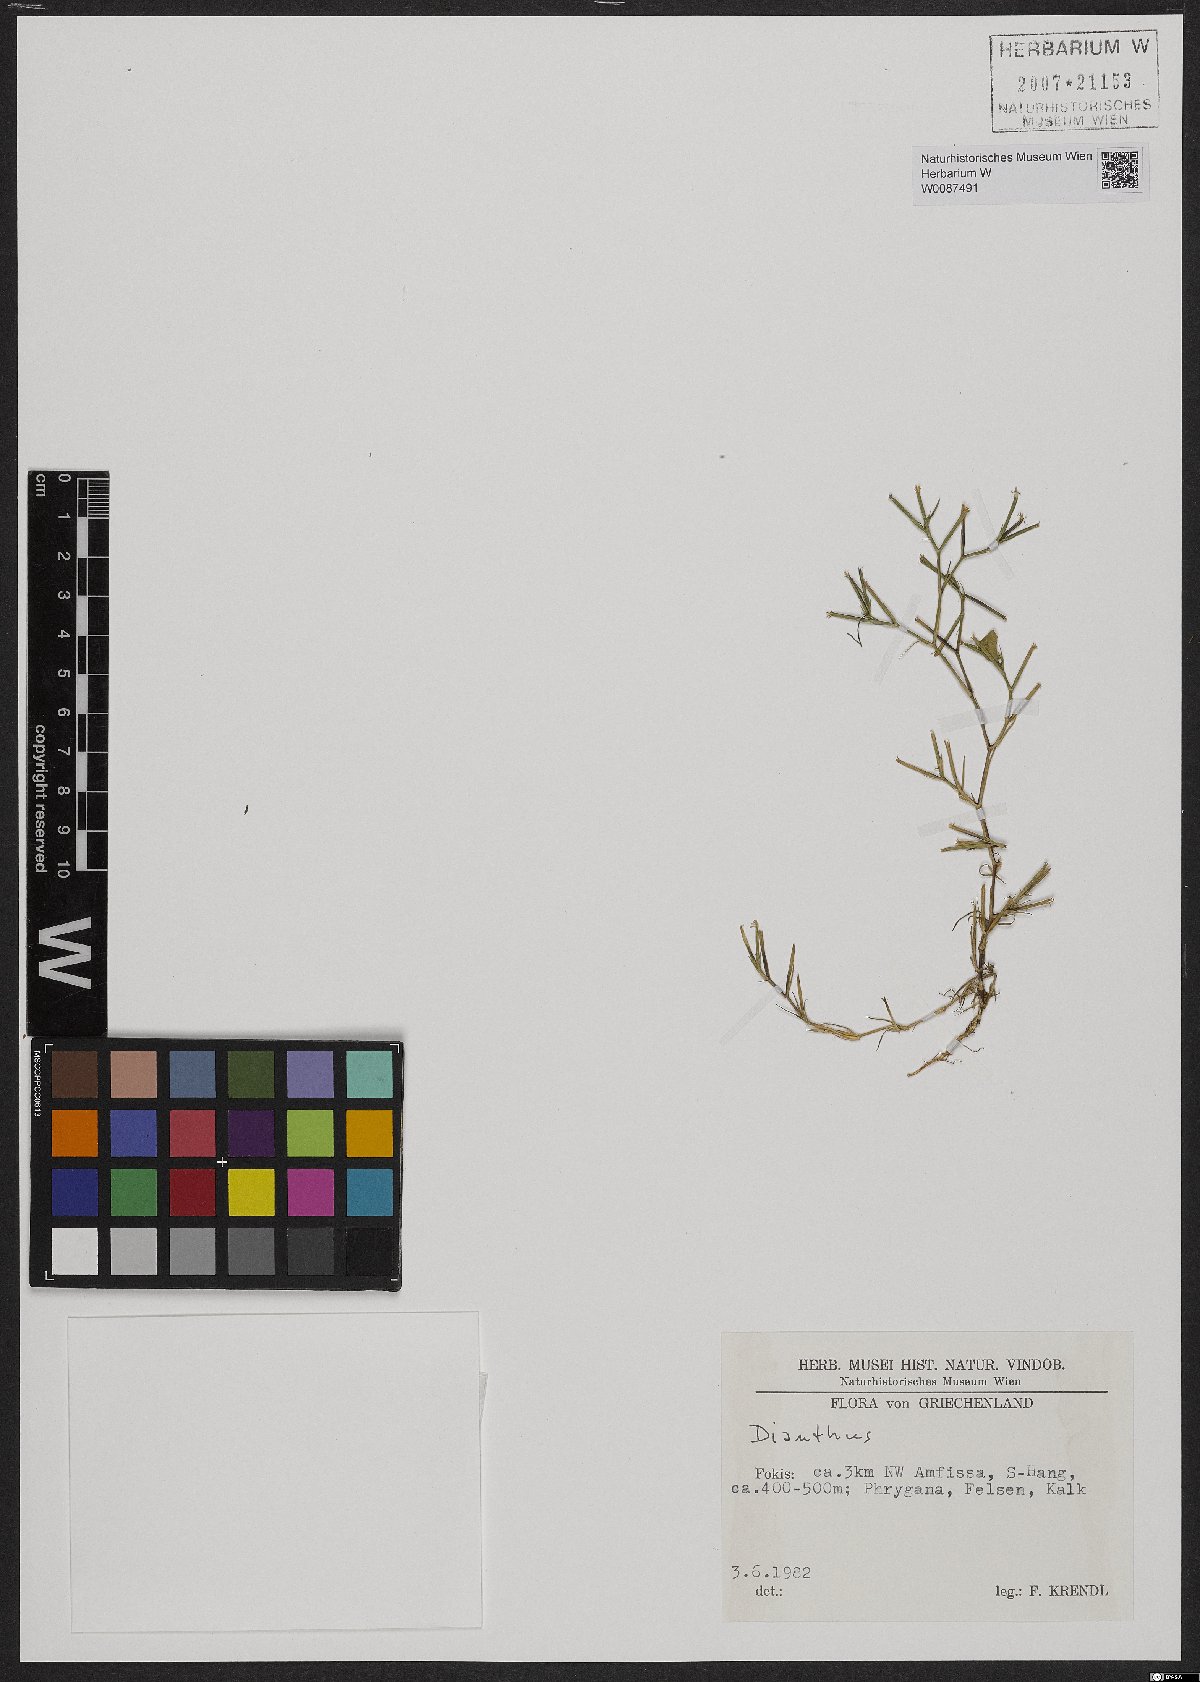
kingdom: Plantae
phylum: Tracheophyta
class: Magnoliopsida
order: Caryophyllales
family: Caryophyllaceae
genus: Dianthus
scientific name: Dianthus nudiflorus
